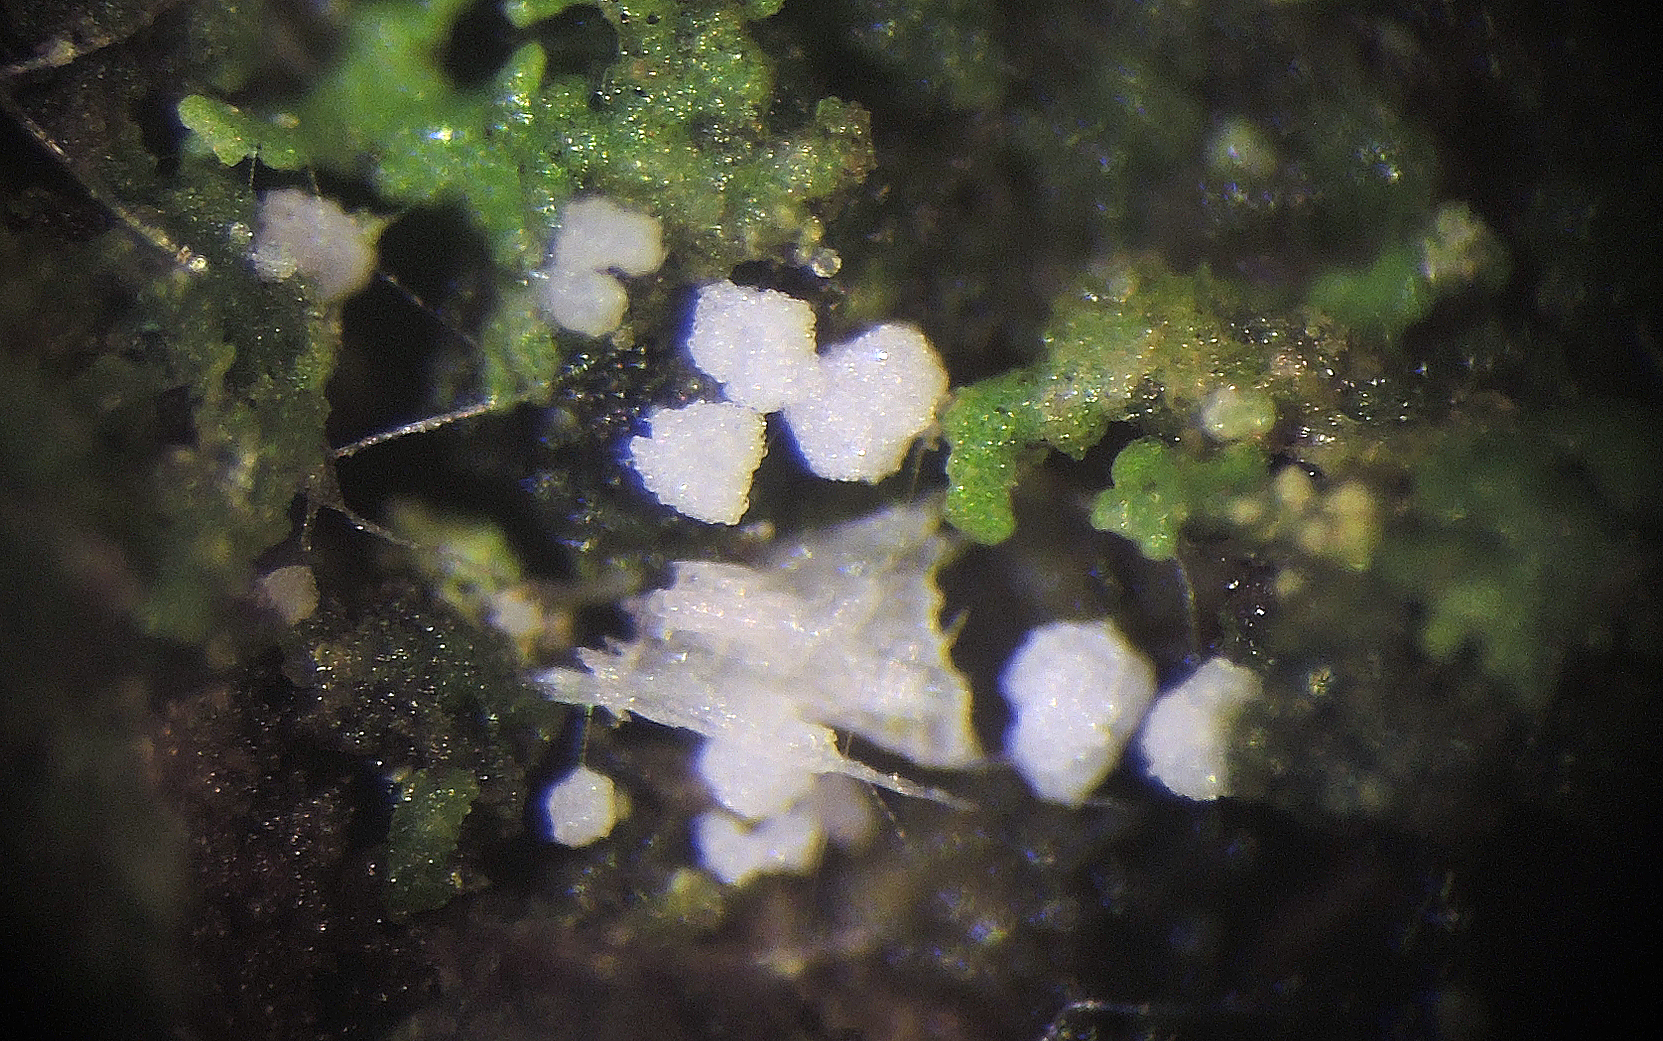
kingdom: Fungi
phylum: Basidiomycota
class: Agaricomycetes
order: Cantharellales
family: Hydnaceae
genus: Burgoa
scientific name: Burgoa angulosa
